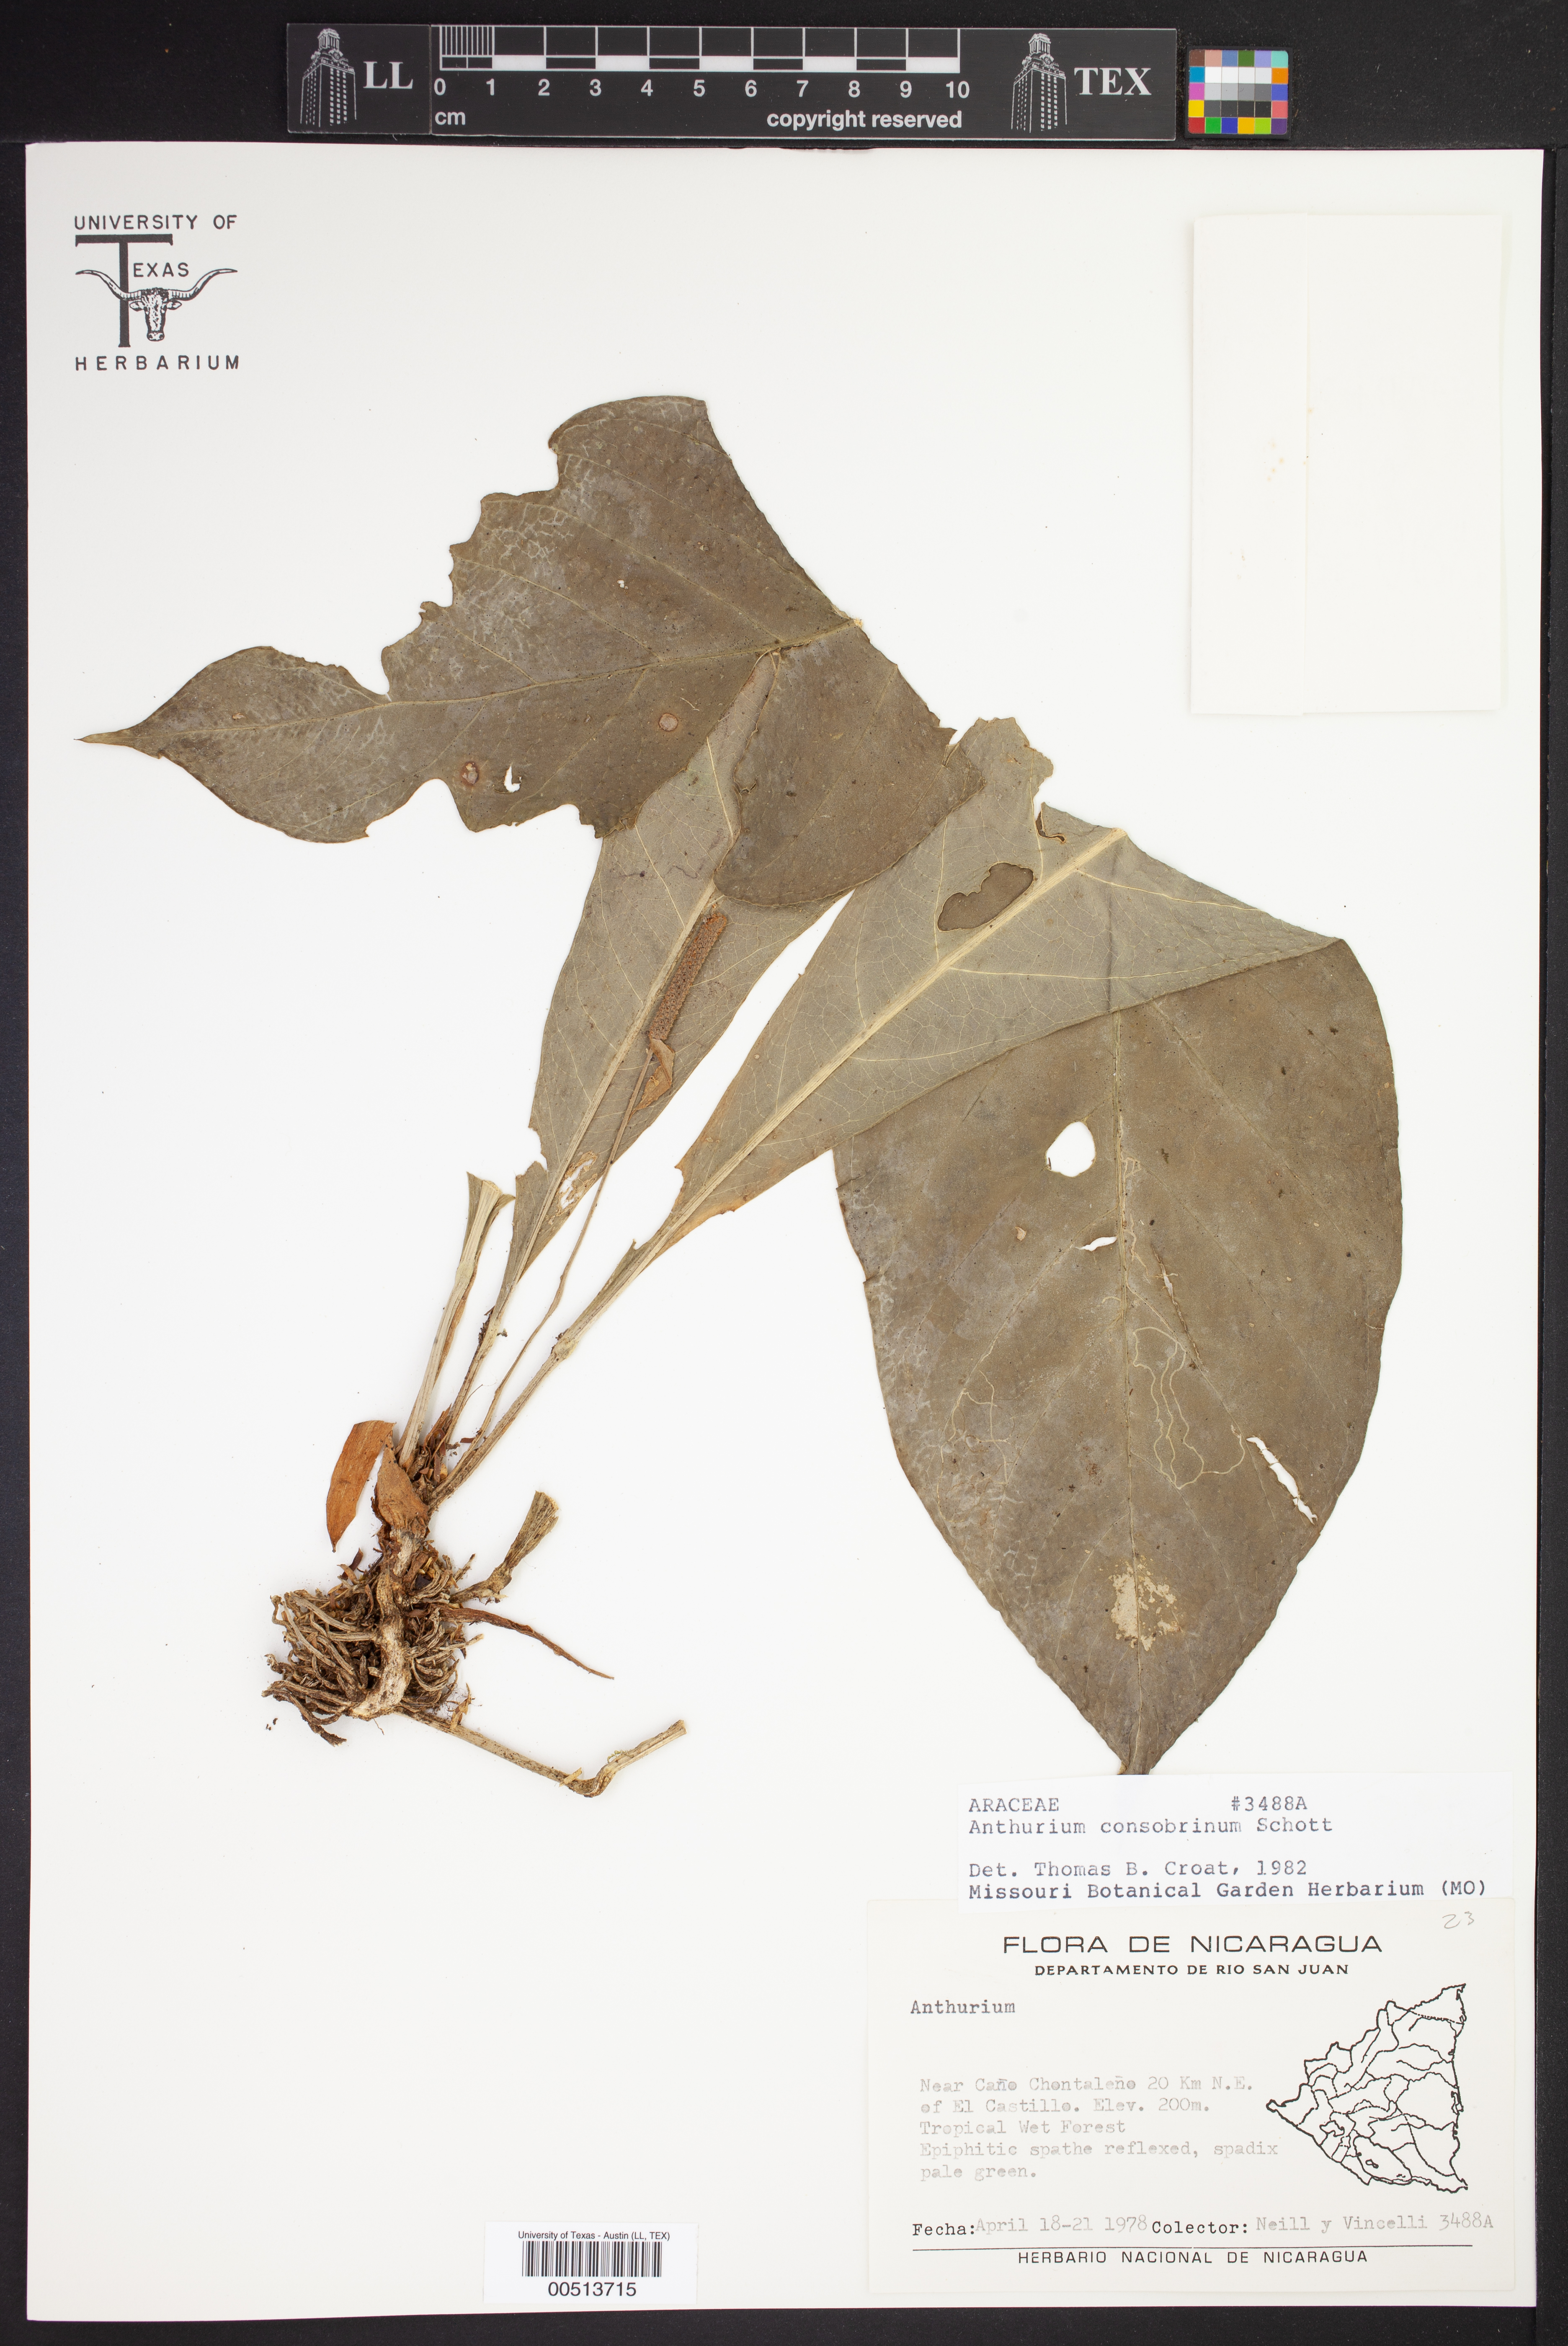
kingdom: Plantae
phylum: Tracheophyta
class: Liliopsida
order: Alismatales
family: Araceae
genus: Anthurium
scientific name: Anthurium consobrinum
